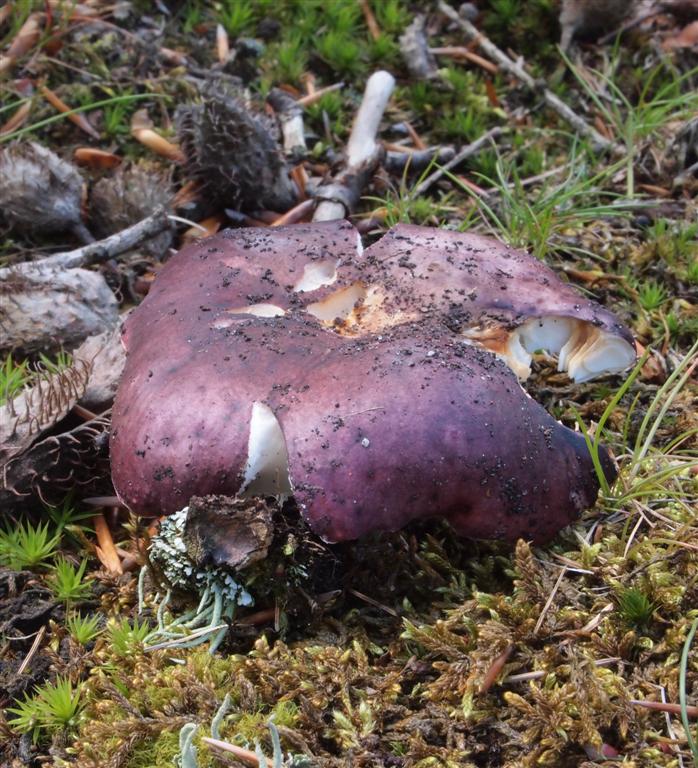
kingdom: Fungi
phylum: Basidiomycota
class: Agaricomycetes
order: Russulales
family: Russulaceae
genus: Russula
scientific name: Russula atropurpurea
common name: purpurbroget skørhat
